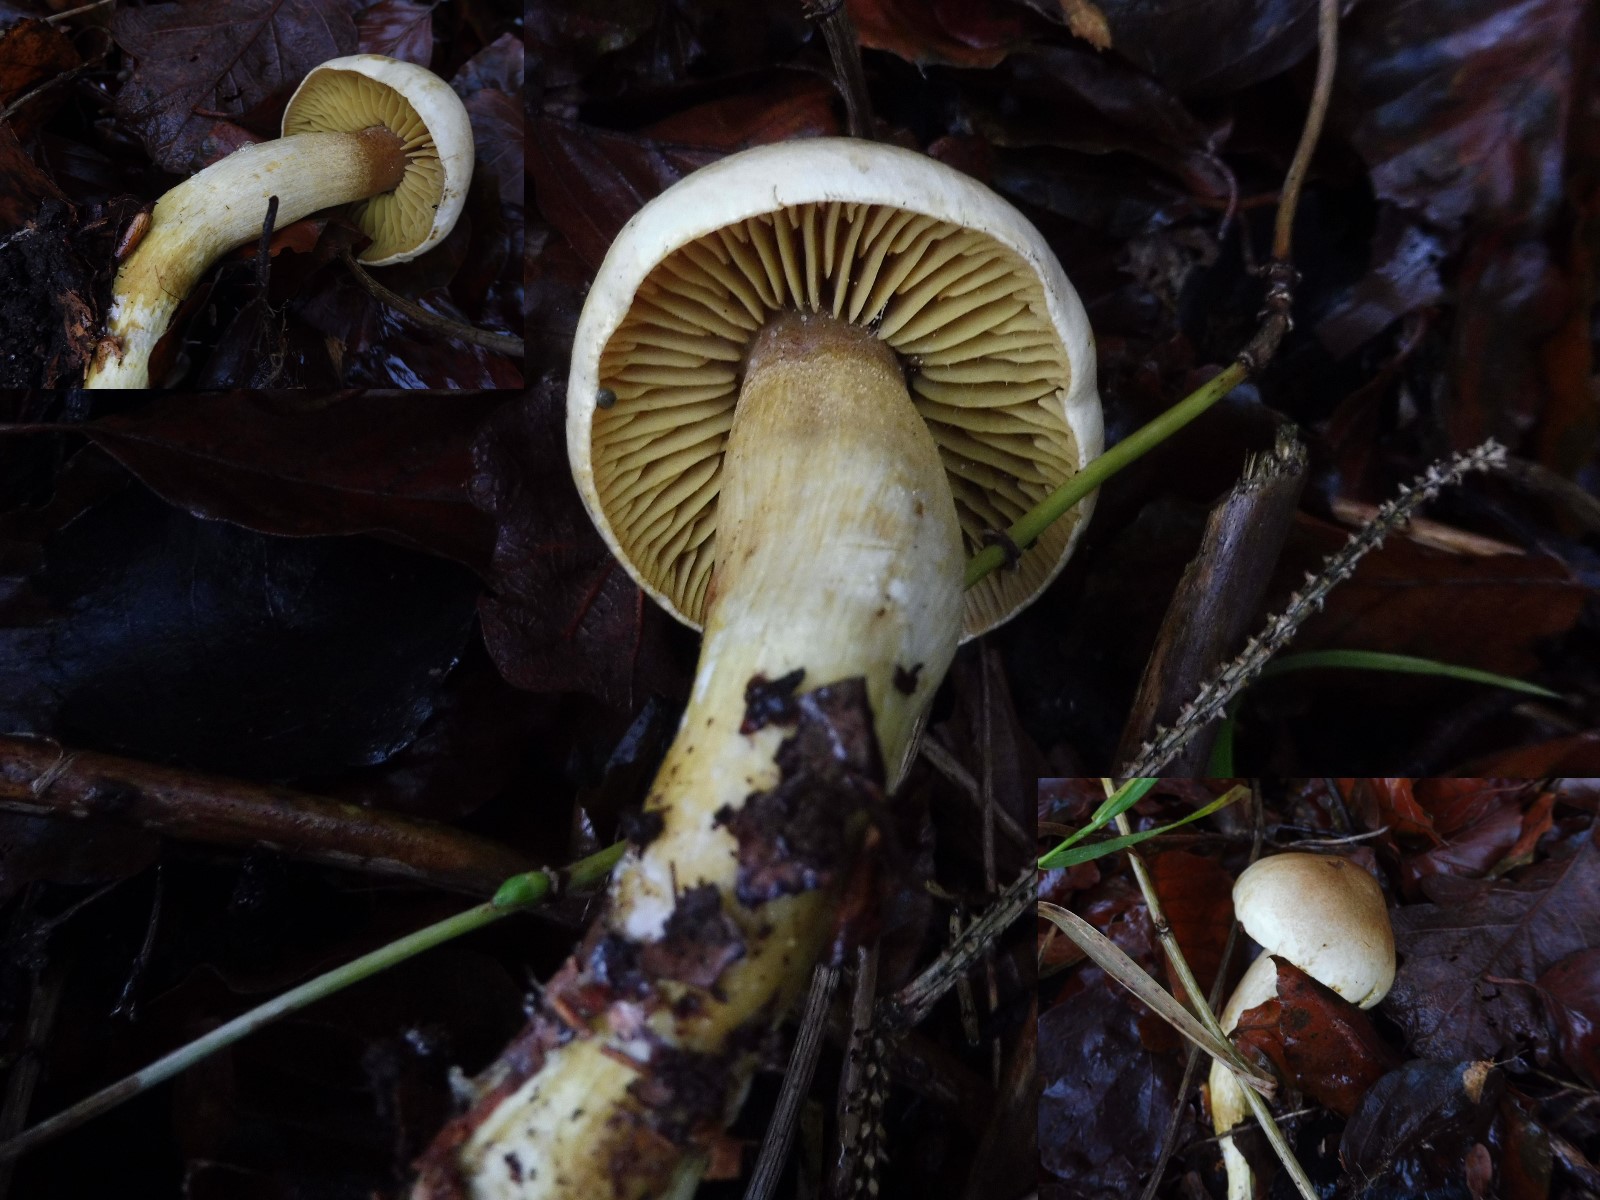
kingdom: Fungi
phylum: Basidiomycota
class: Agaricomycetes
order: Agaricales
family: Tricholomataceae
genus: Tricholoma
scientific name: Tricholoma sulphureum
